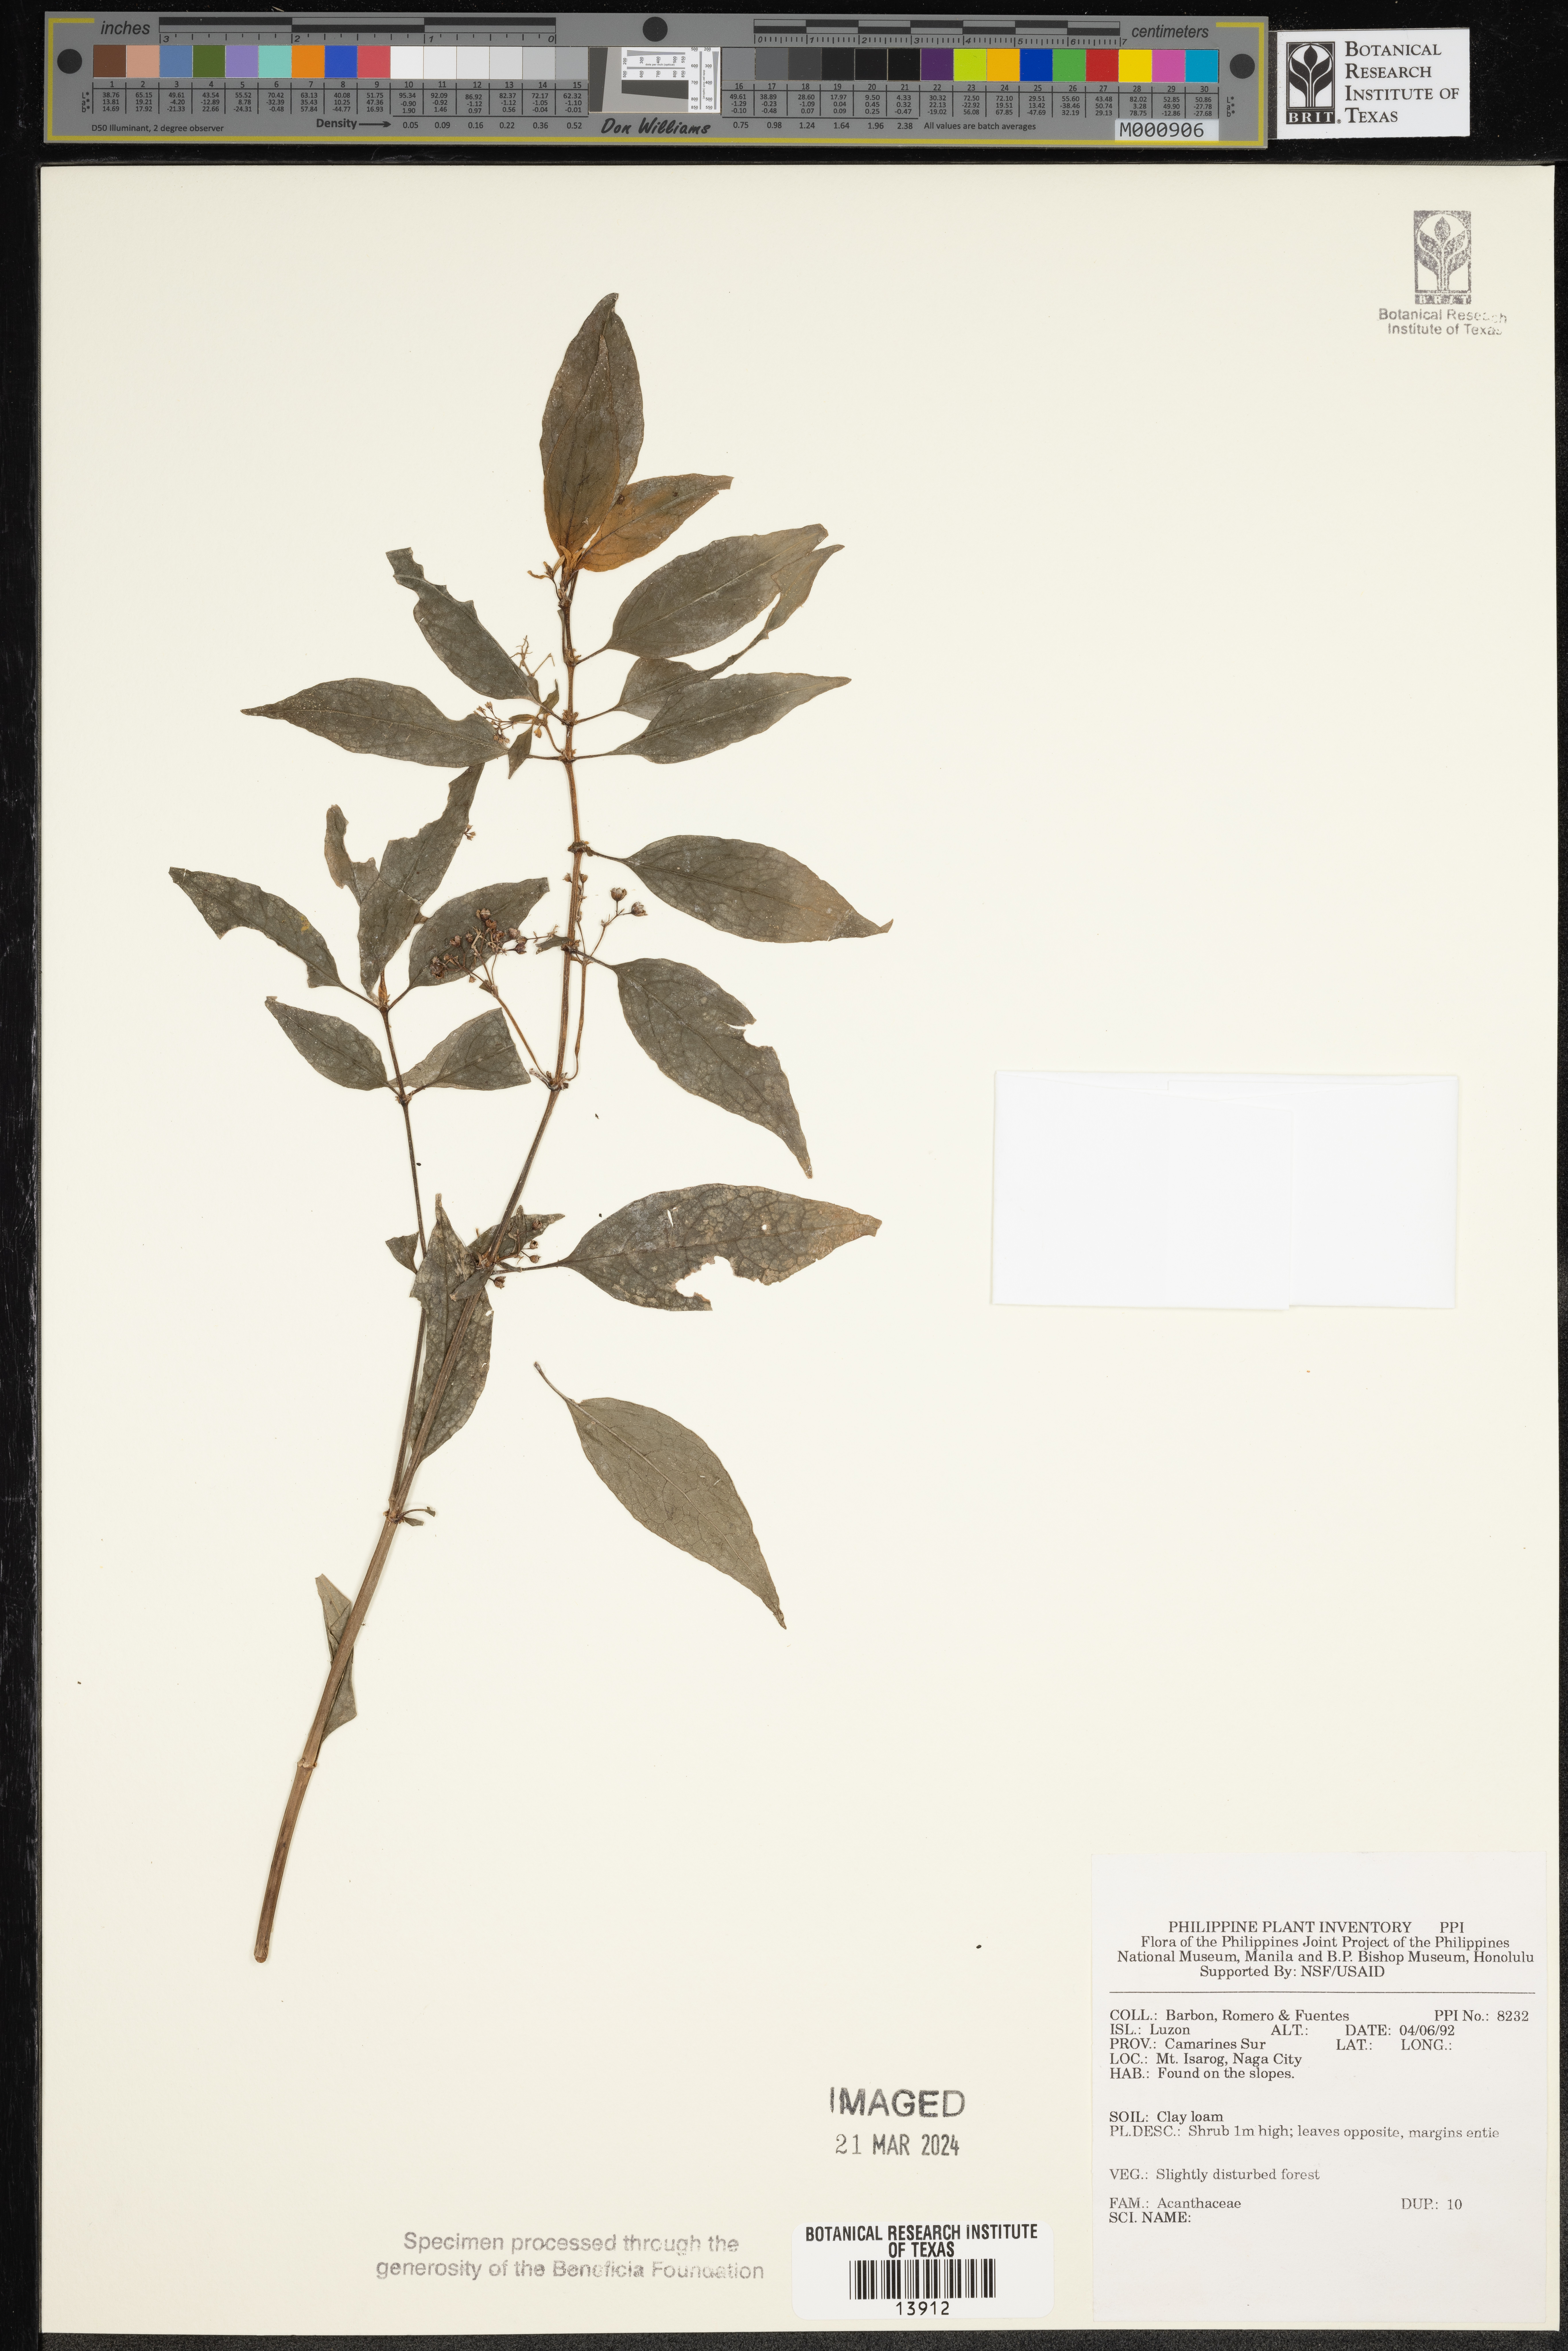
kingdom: Plantae
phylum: Tracheophyta
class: Magnoliopsida
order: Lamiales
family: Acanthaceae
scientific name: Acanthaceae
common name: Acanthaceae
